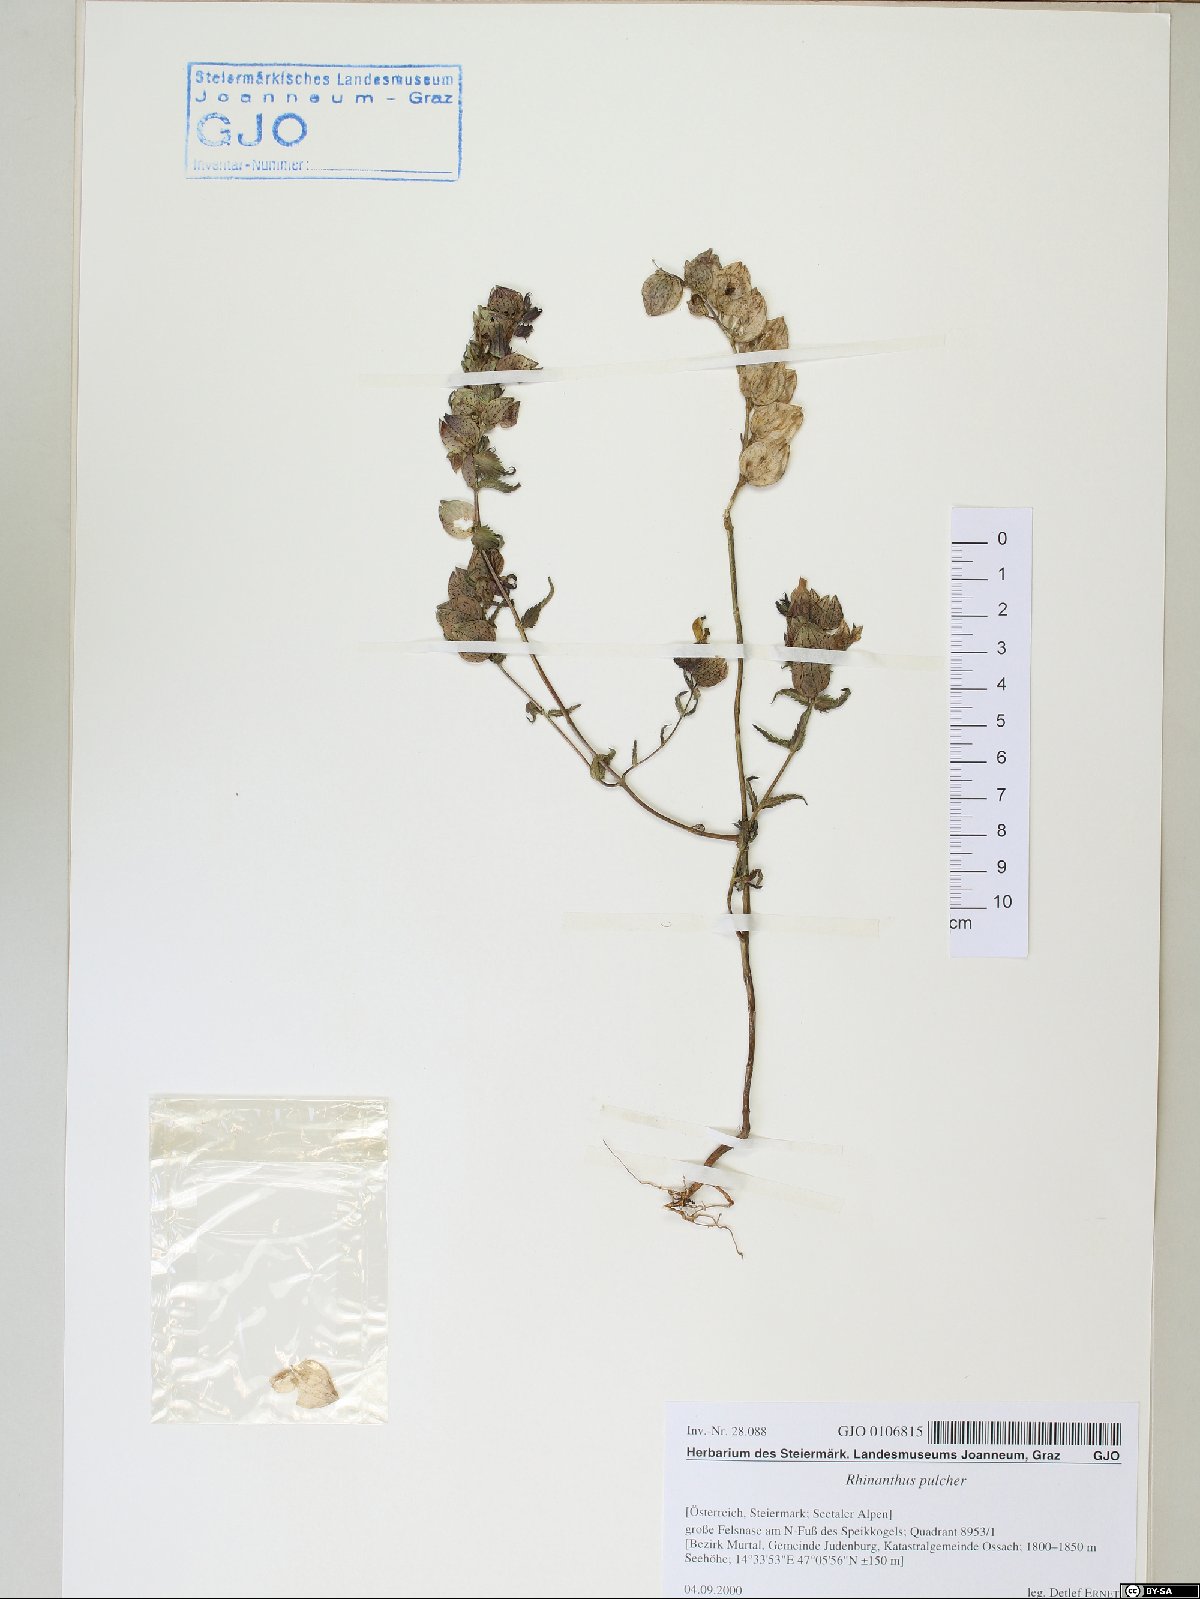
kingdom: Plantae
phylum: Tracheophyta
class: Magnoliopsida
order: Lamiales
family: Orobanchaceae
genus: Rhinanthus
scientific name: Rhinanthus riphaeus
